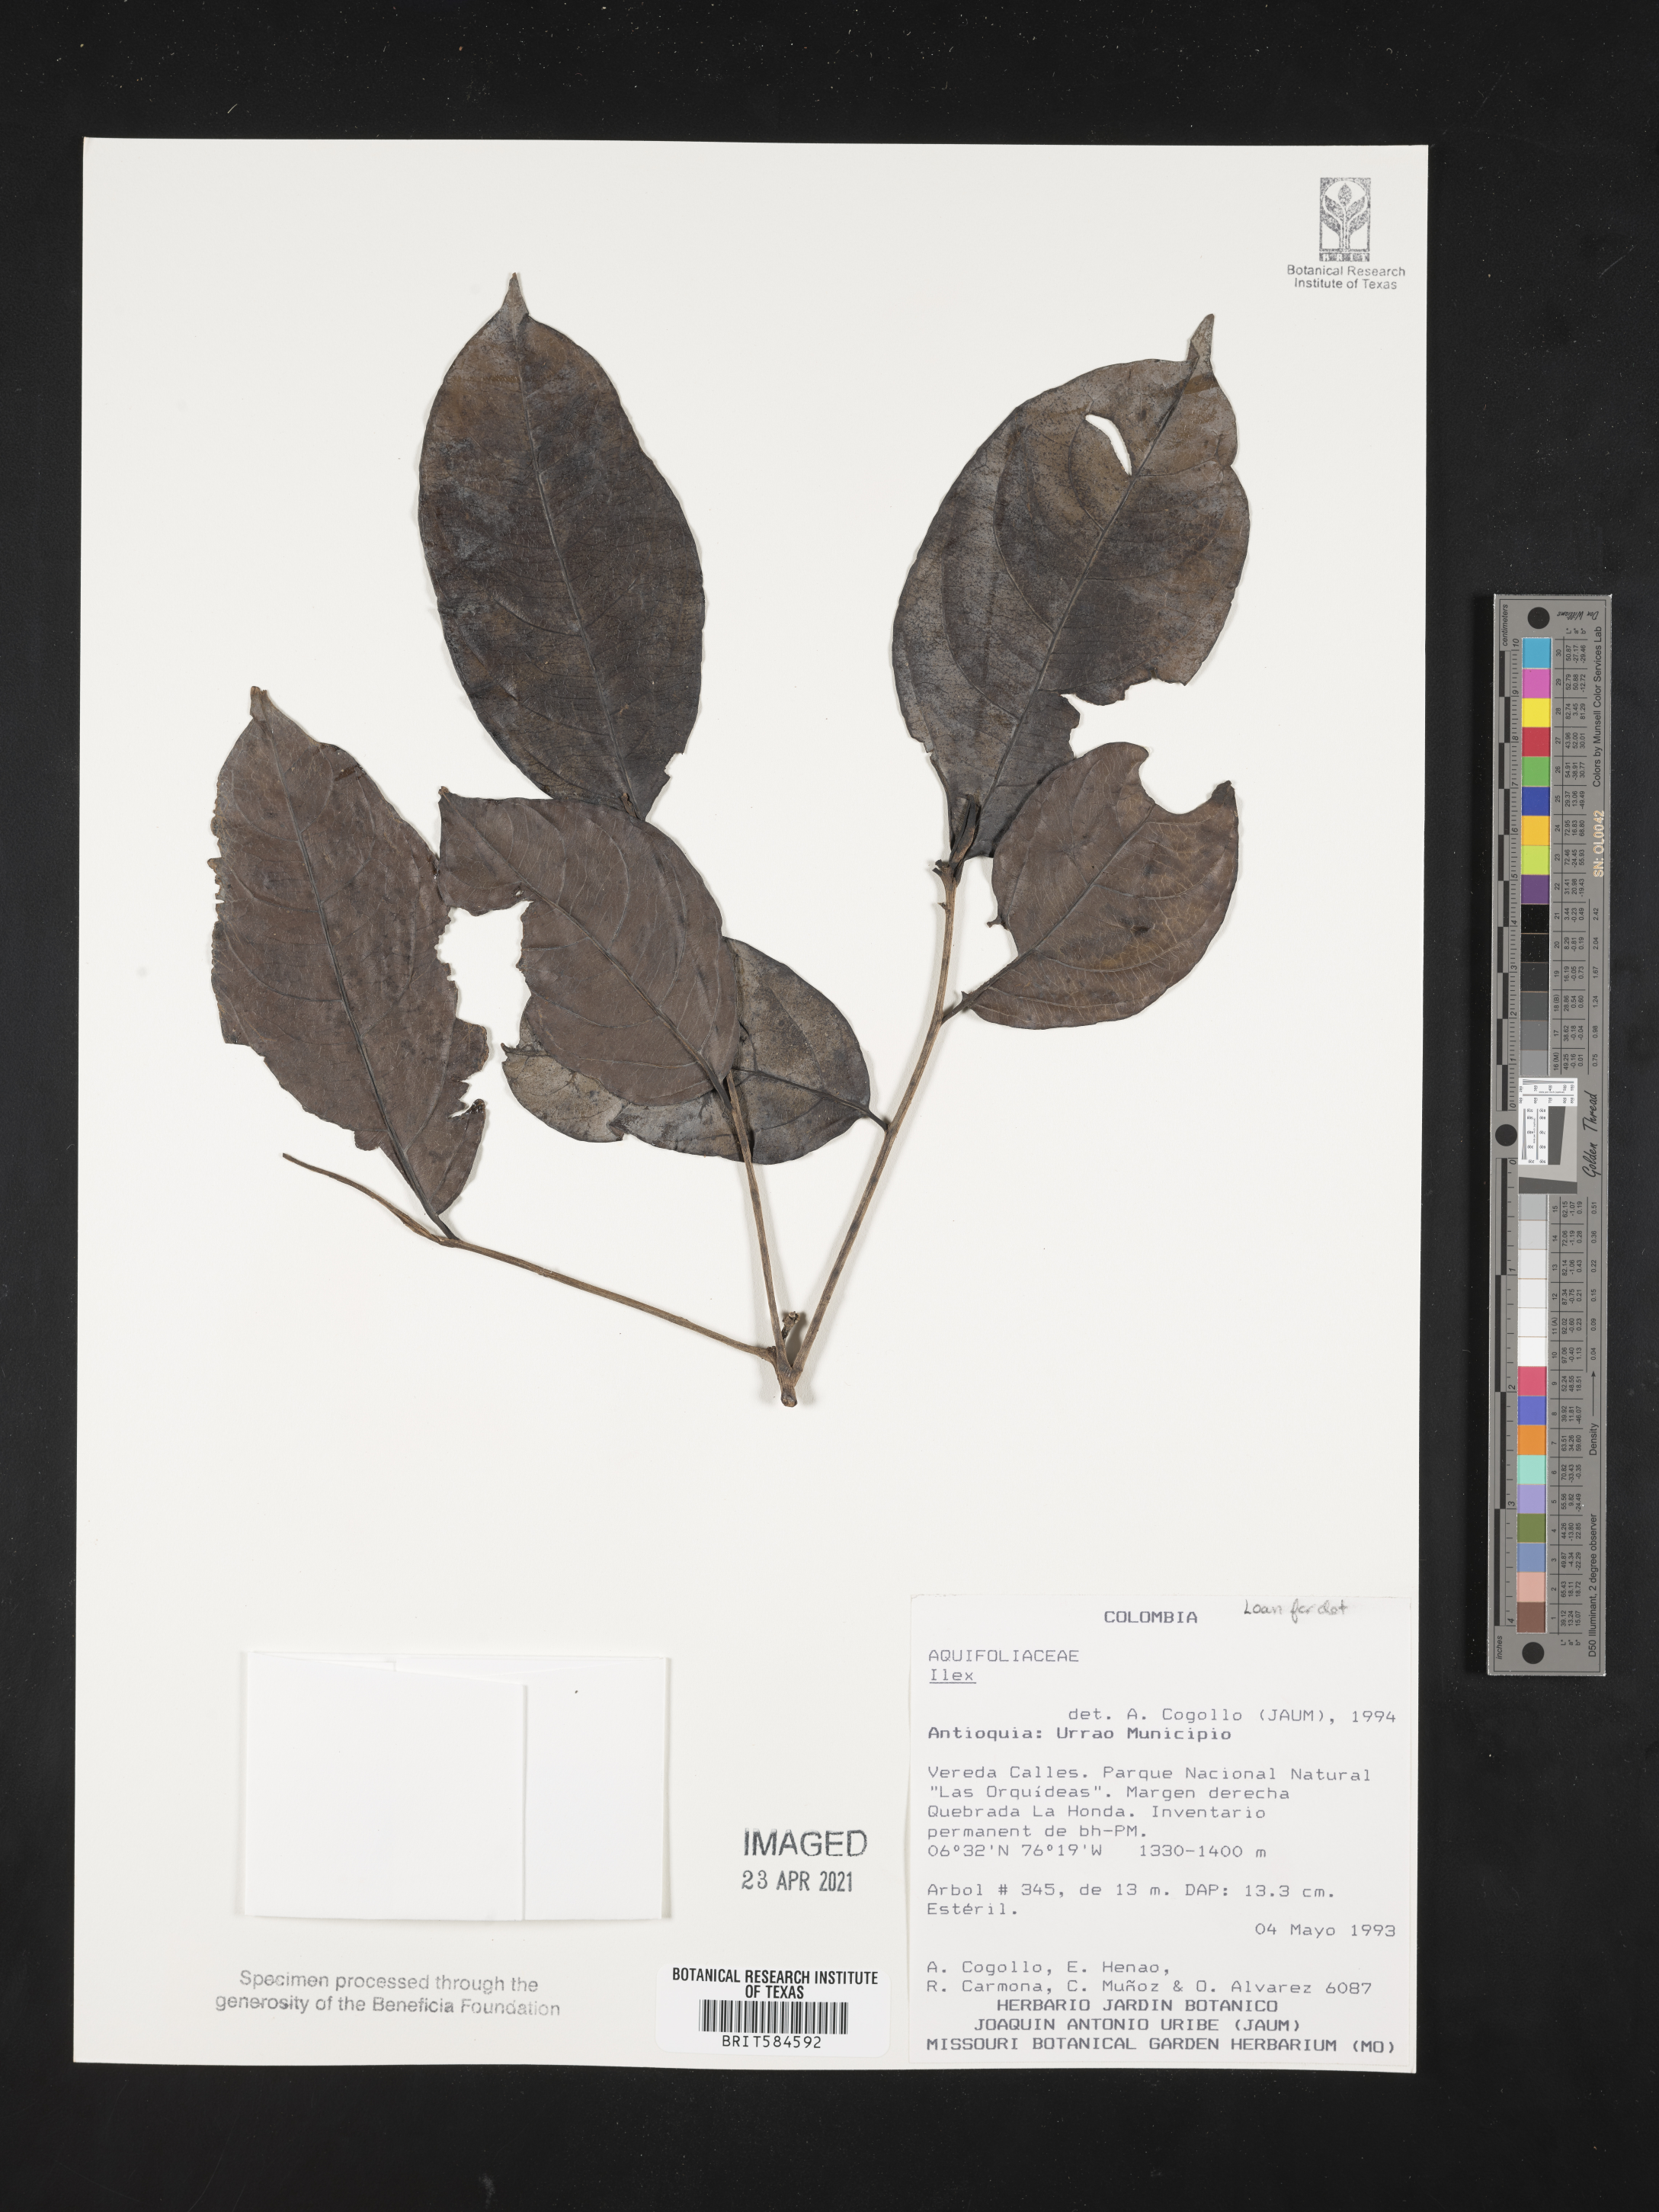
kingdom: Plantae
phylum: Tracheophyta
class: Magnoliopsida
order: Aquifoliales
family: Aquifoliaceae
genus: Ilex
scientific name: Ilex
